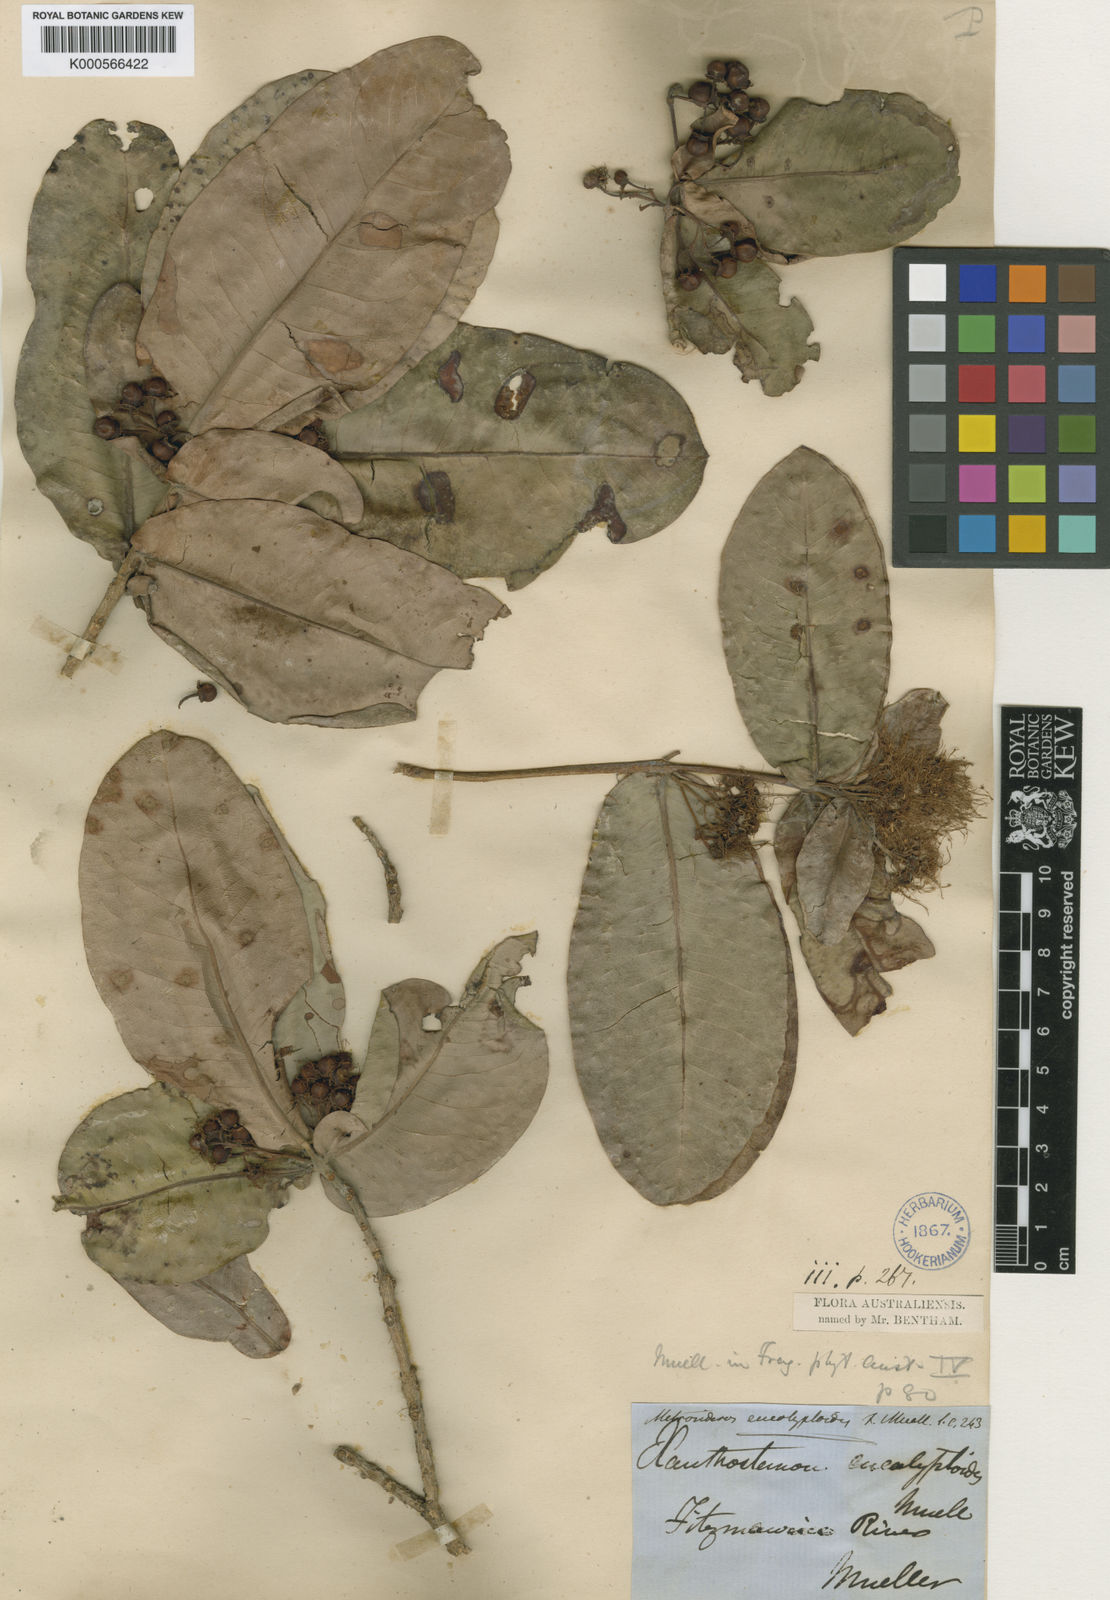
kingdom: Plantae
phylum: Tracheophyta
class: Magnoliopsida
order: Myrtales
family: Myrtaceae
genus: Xanthostemon
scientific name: Xanthostemon eucalyptoides
